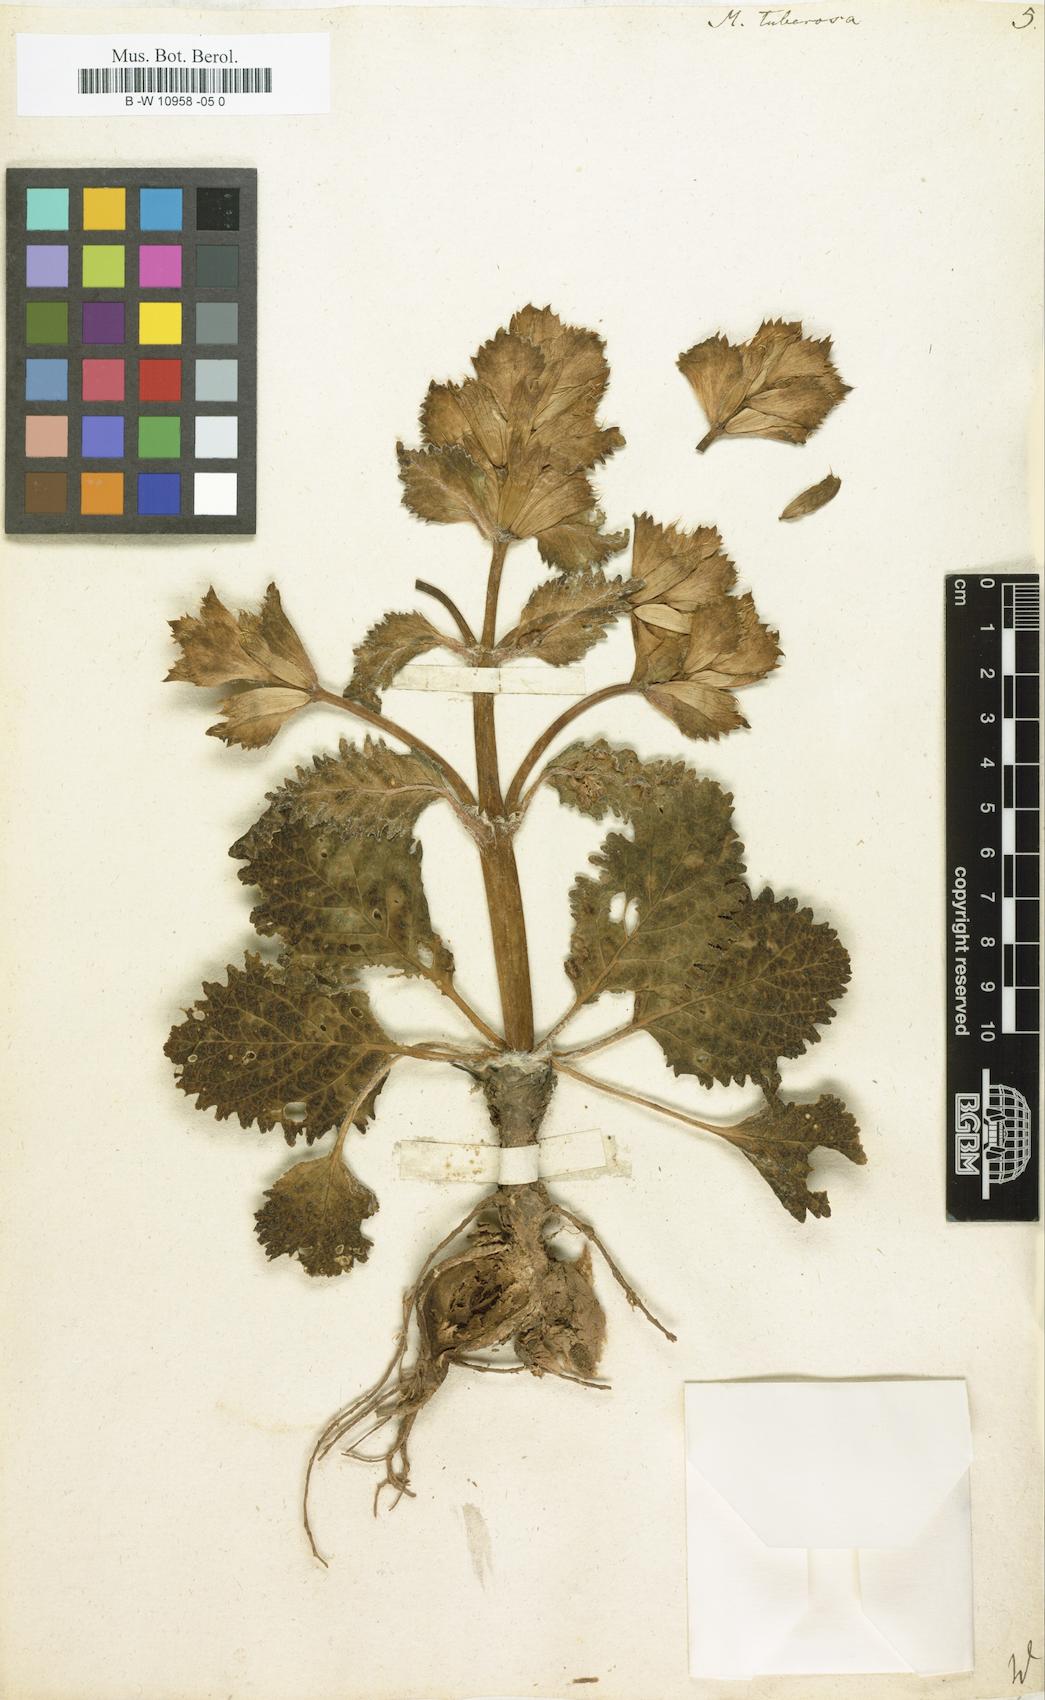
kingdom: Plantae
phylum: Tracheophyta
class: Magnoliopsida
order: Lamiales
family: Lamiaceae
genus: Moluccella
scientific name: Moluccella tuberosa
